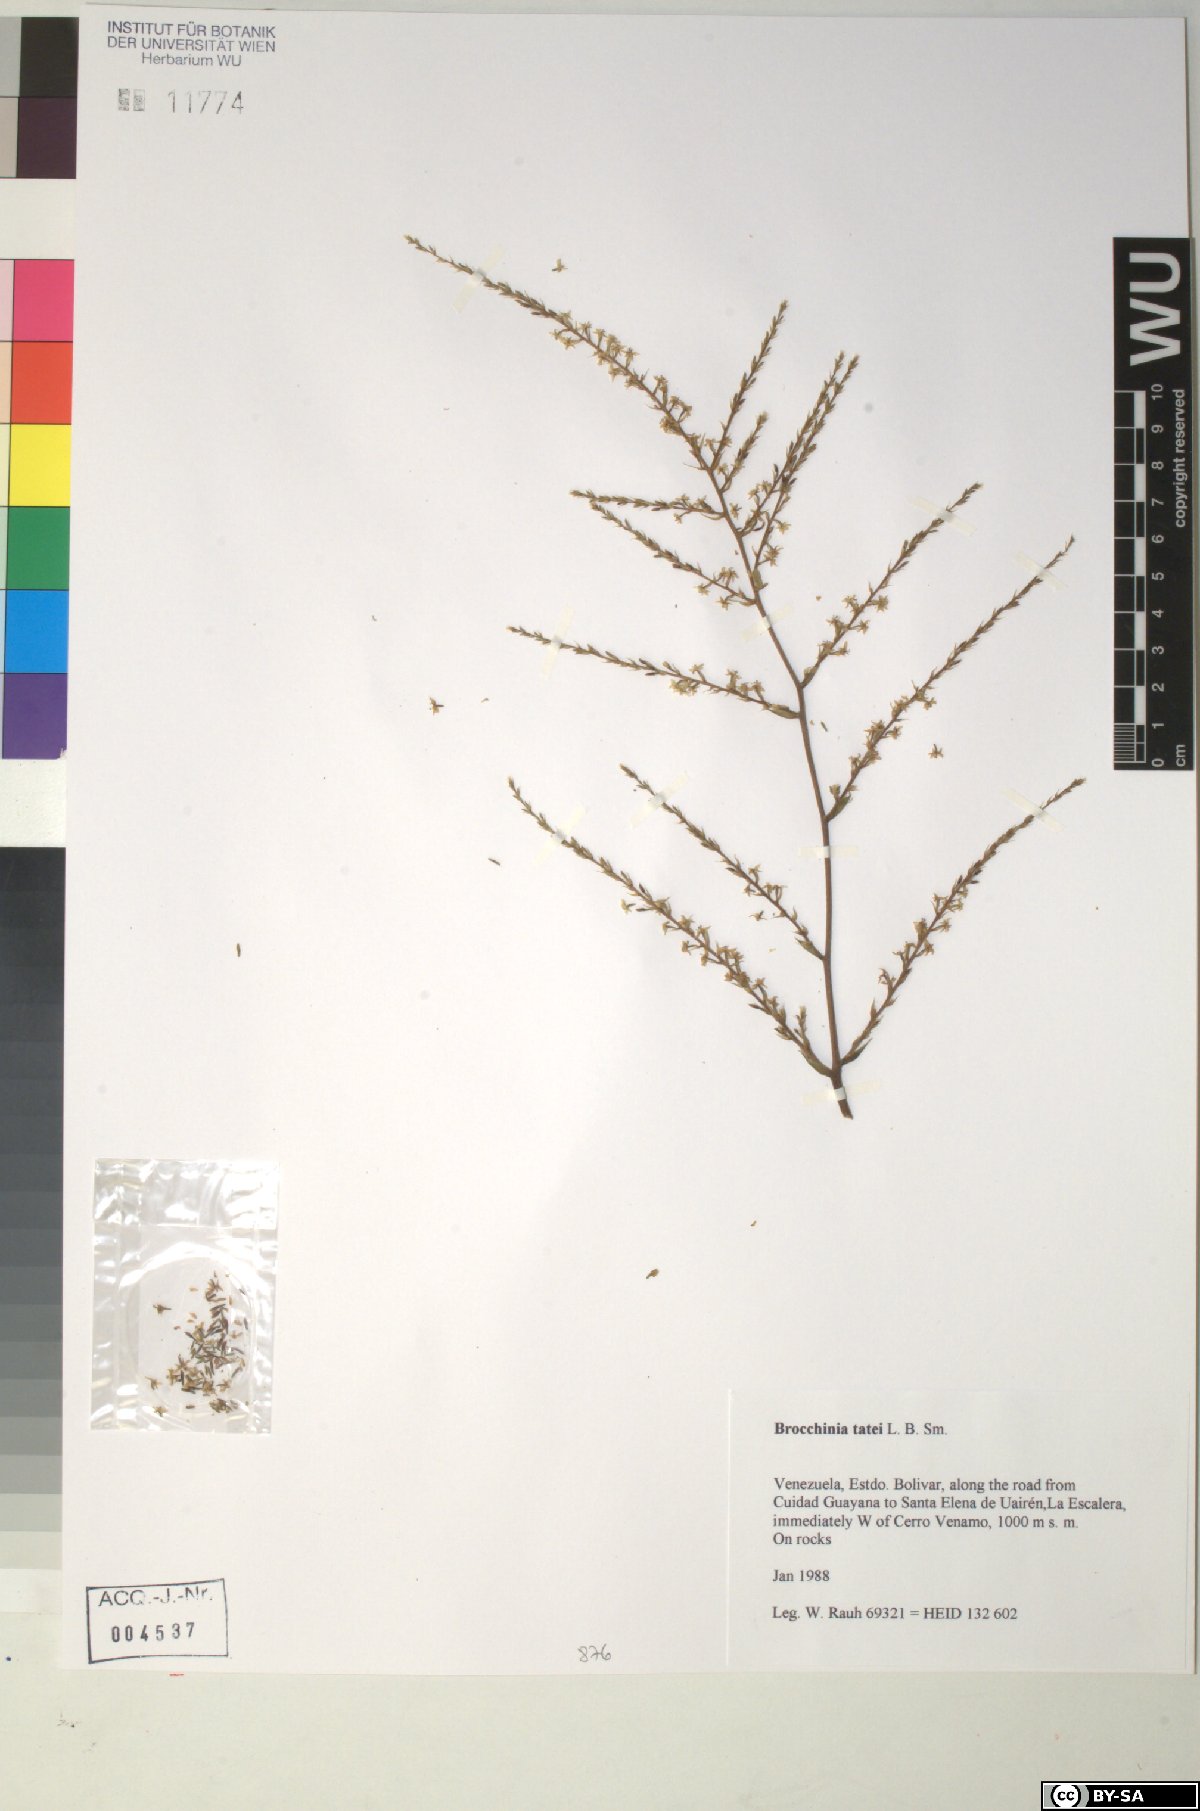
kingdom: Plantae
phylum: Tracheophyta
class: Liliopsida
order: Poales
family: Bromeliaceae
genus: Brocchinia
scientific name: Brocchinia tatei
